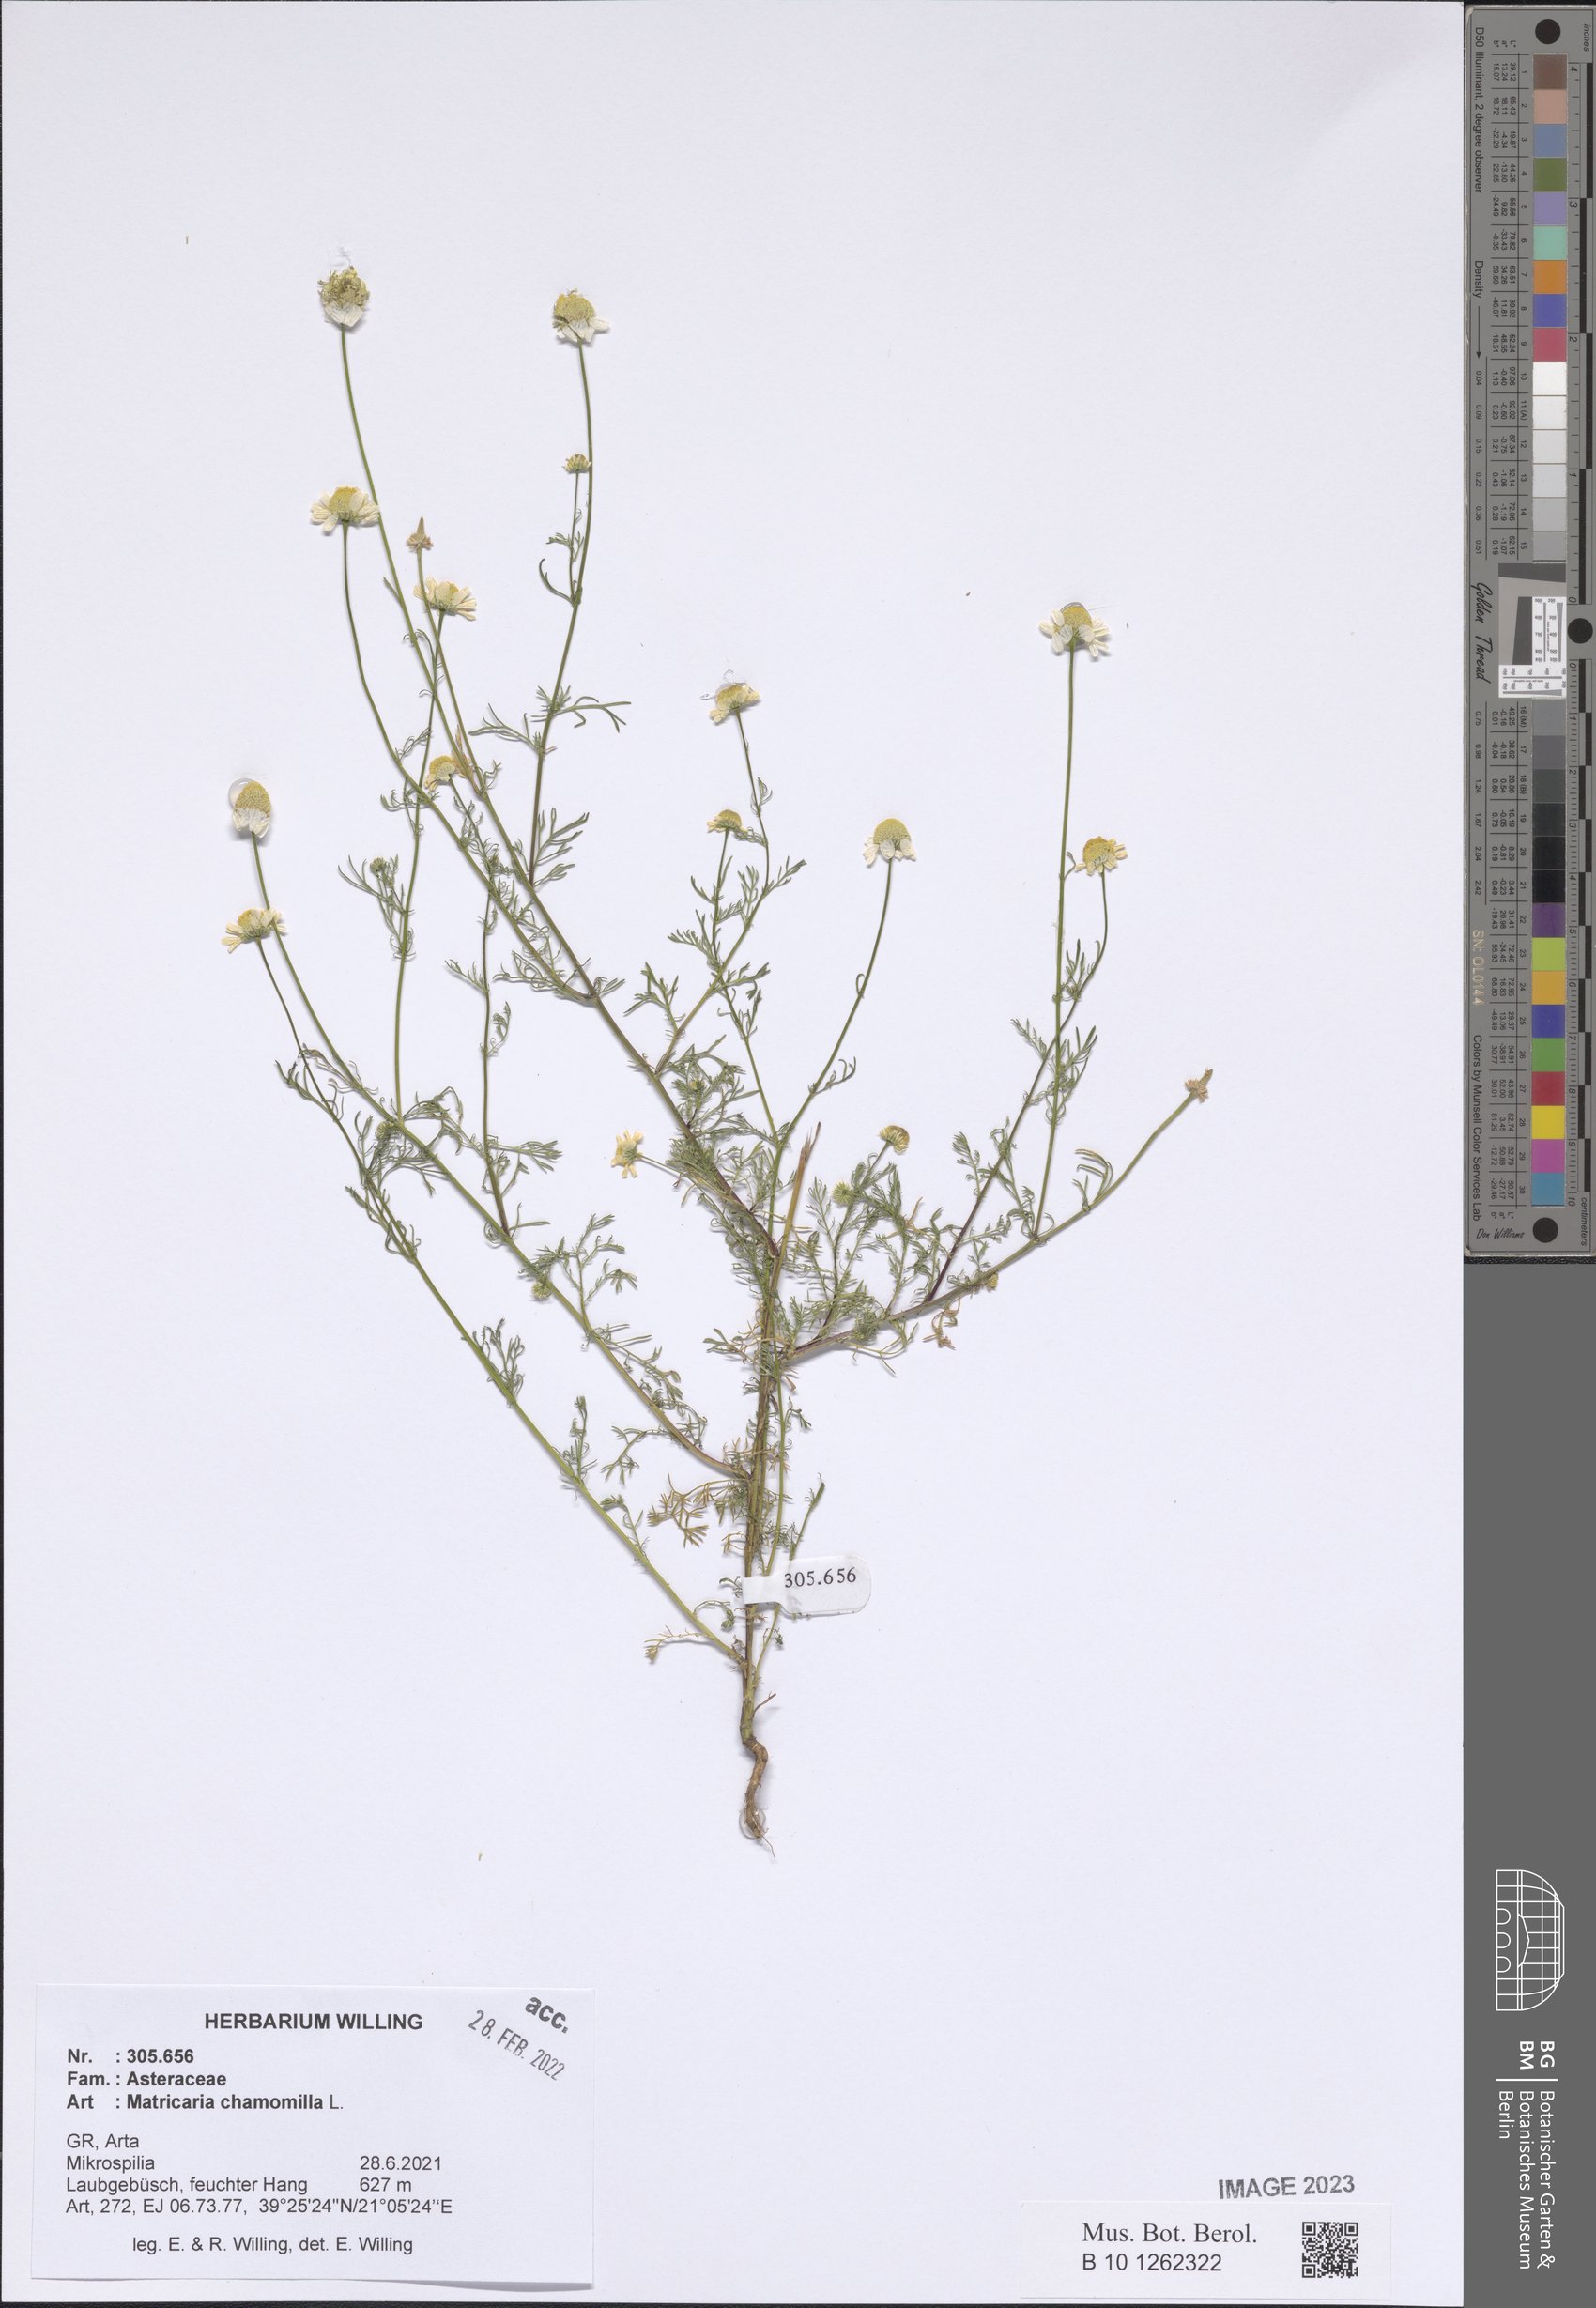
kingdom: Plantae
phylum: Tracheophyta
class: Magnoliopsida
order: Asterales
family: Asteraceae
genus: Matricaria
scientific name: Matricaria chamomilla
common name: Scented mayweed
